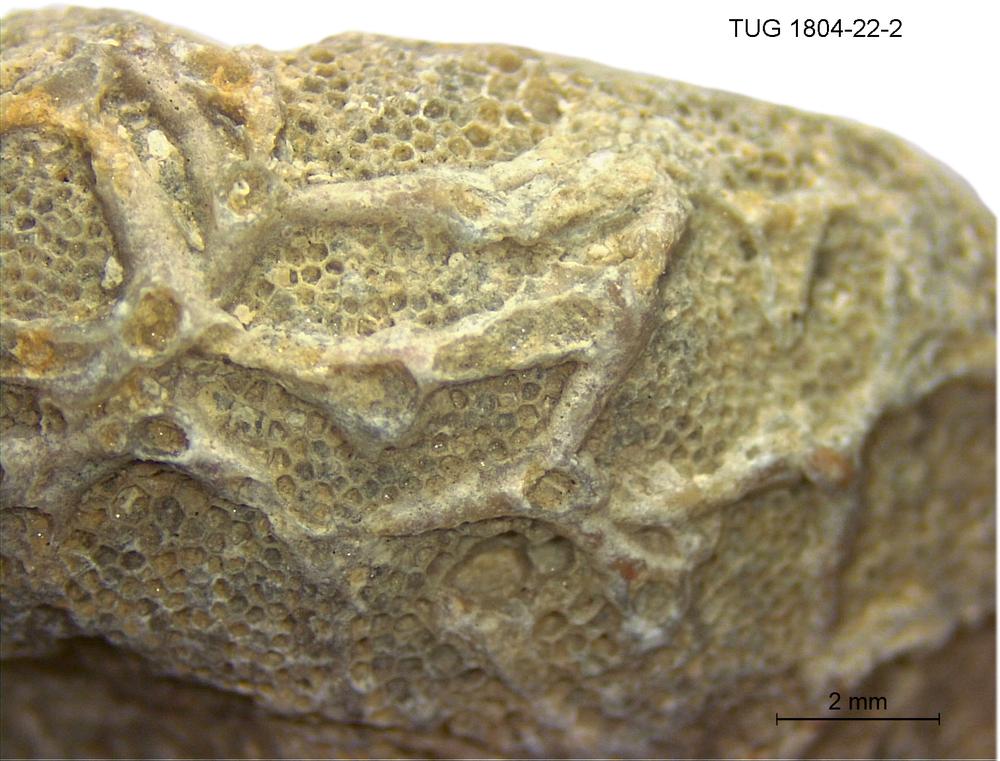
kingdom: Animalia
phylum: Cnidaria
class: Anthozoa
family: Auloporidae
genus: Aulopora
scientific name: Aulopora
